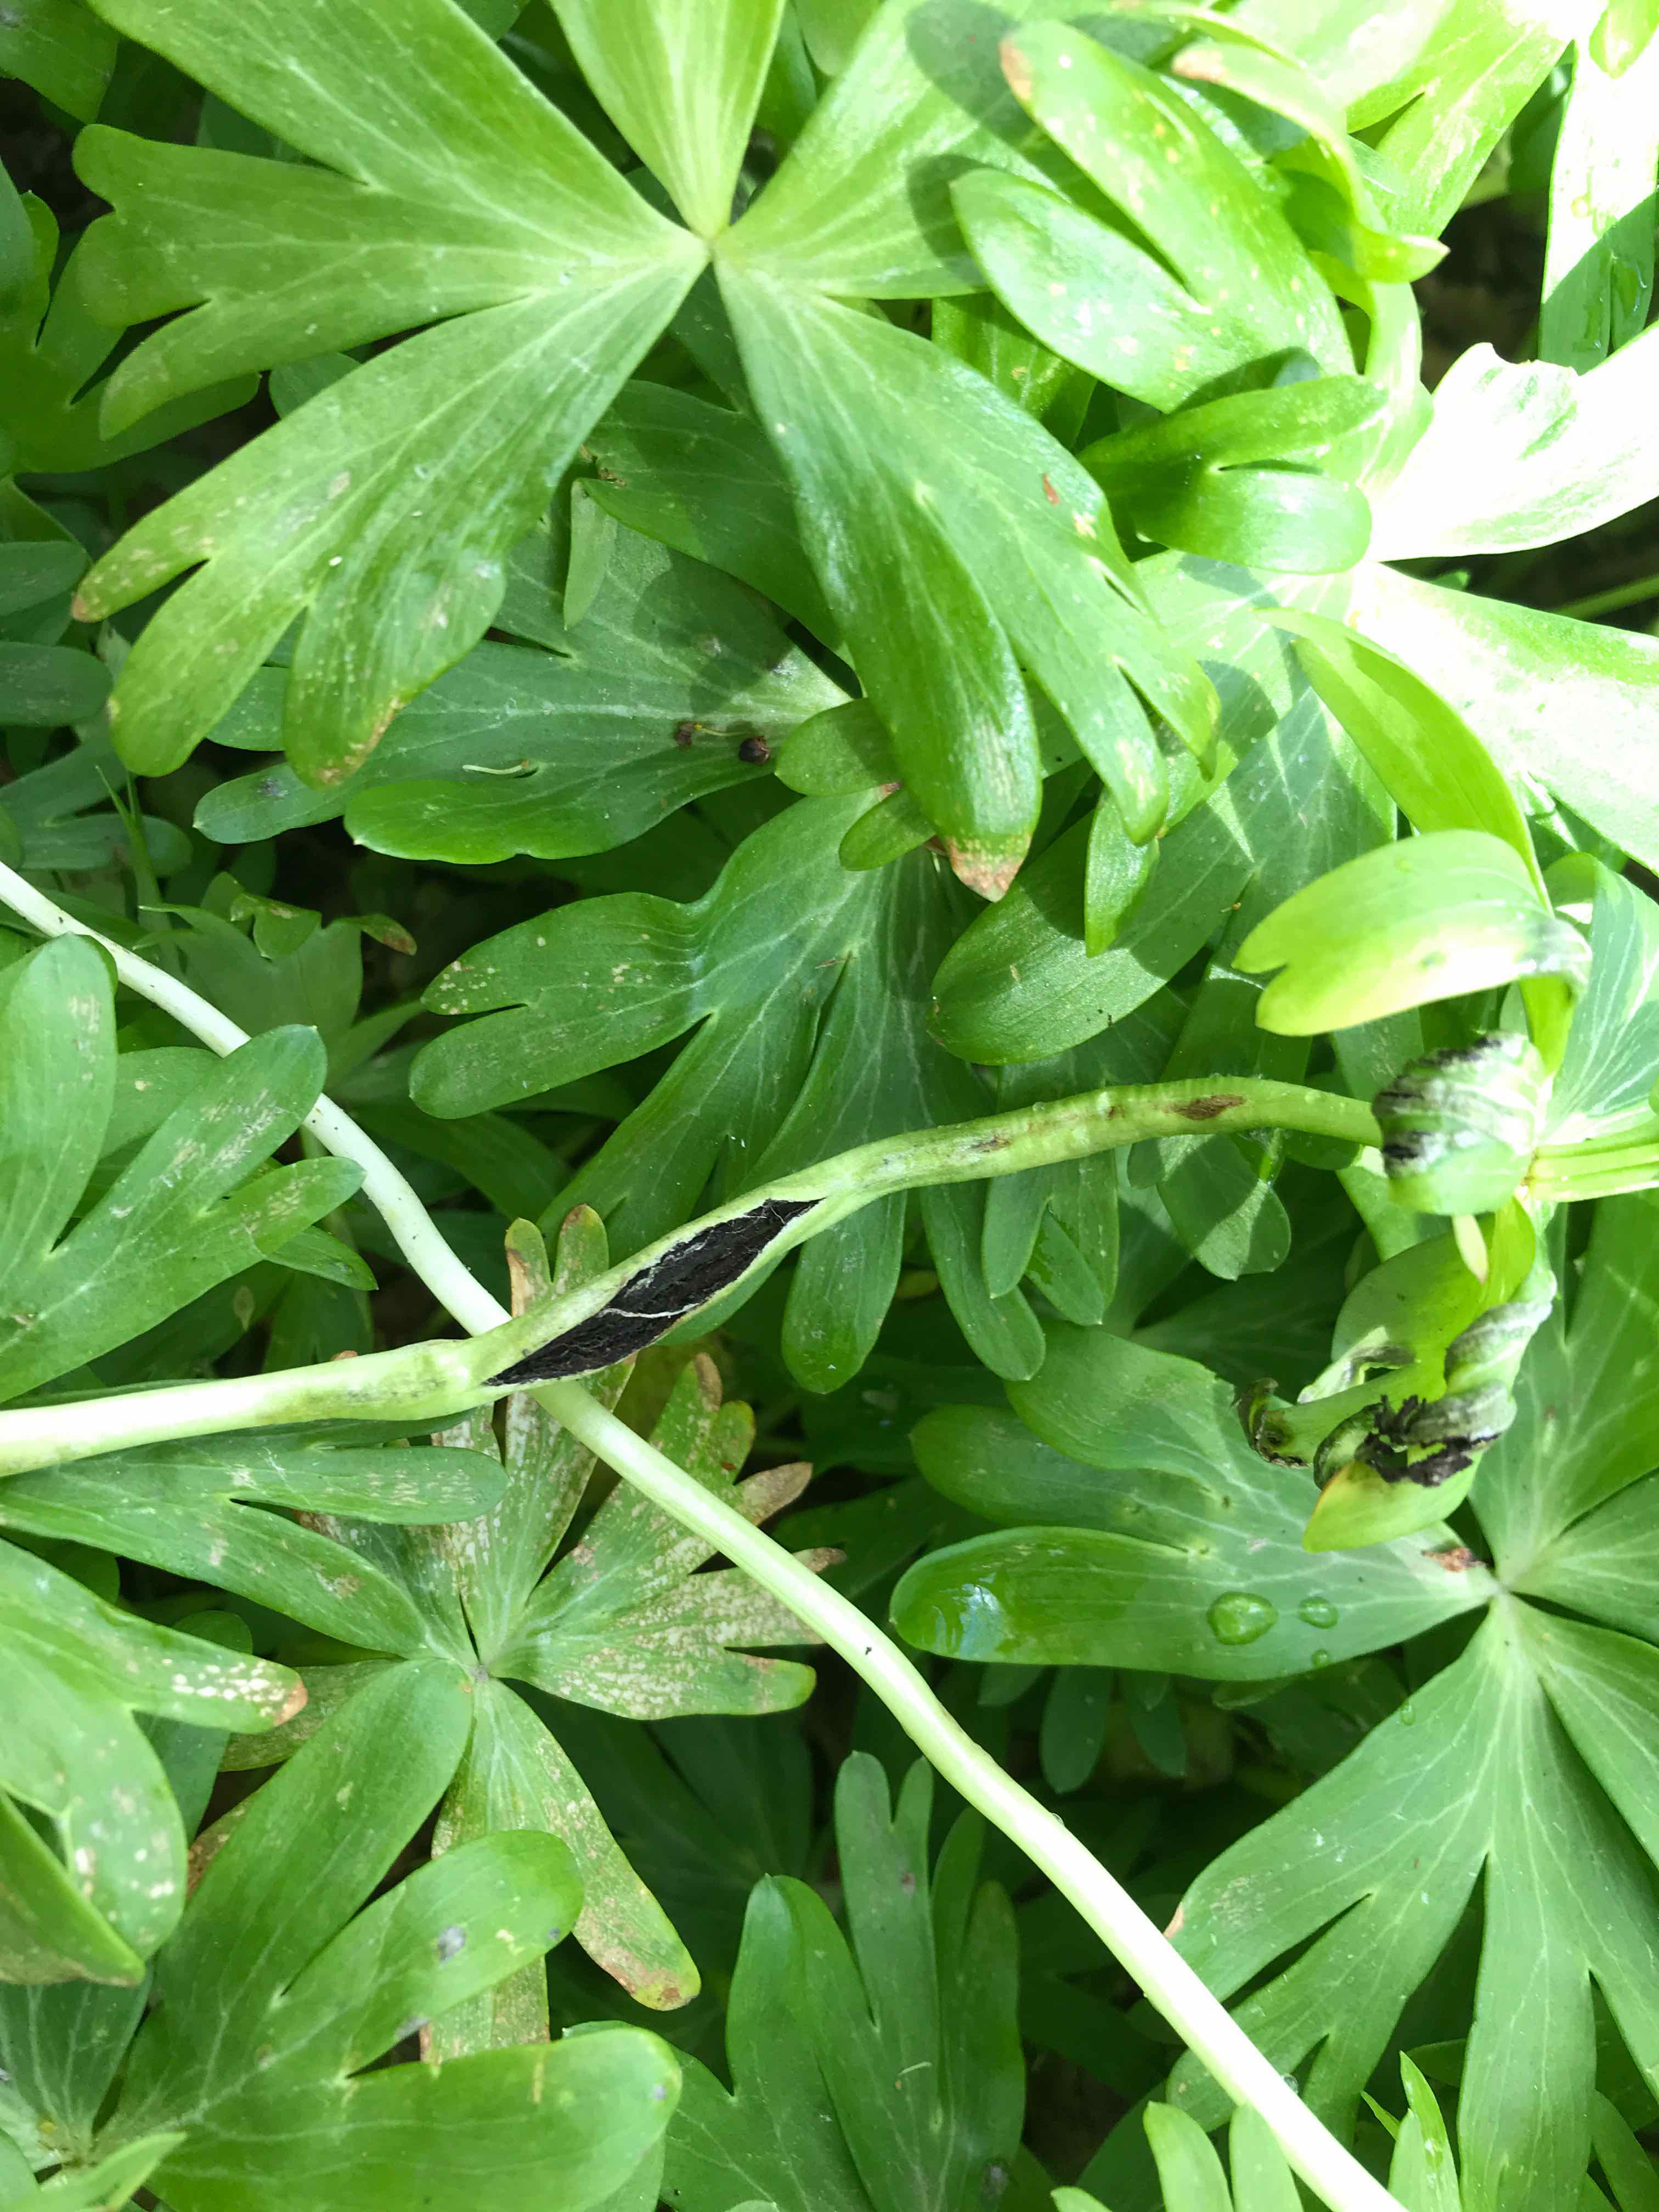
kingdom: Fungi
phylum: Basidiomycota
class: Ustilaginomycetes
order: Urocystidales
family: Urocystidaceae
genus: Urocystis
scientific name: Urocystis eranthidis
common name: erantis-brand
